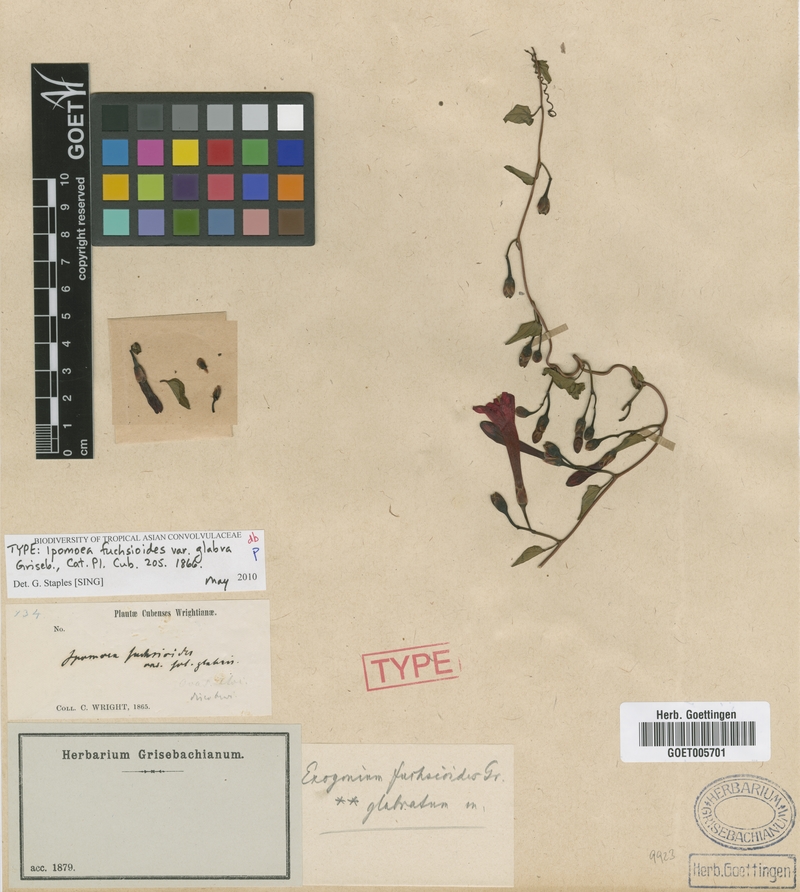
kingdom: Plantae
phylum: Tracheophyta
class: Magnoliopsida
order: Solanales
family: Convolvulaceae
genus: Ipomoea
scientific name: Ipomoea fuchsioides
